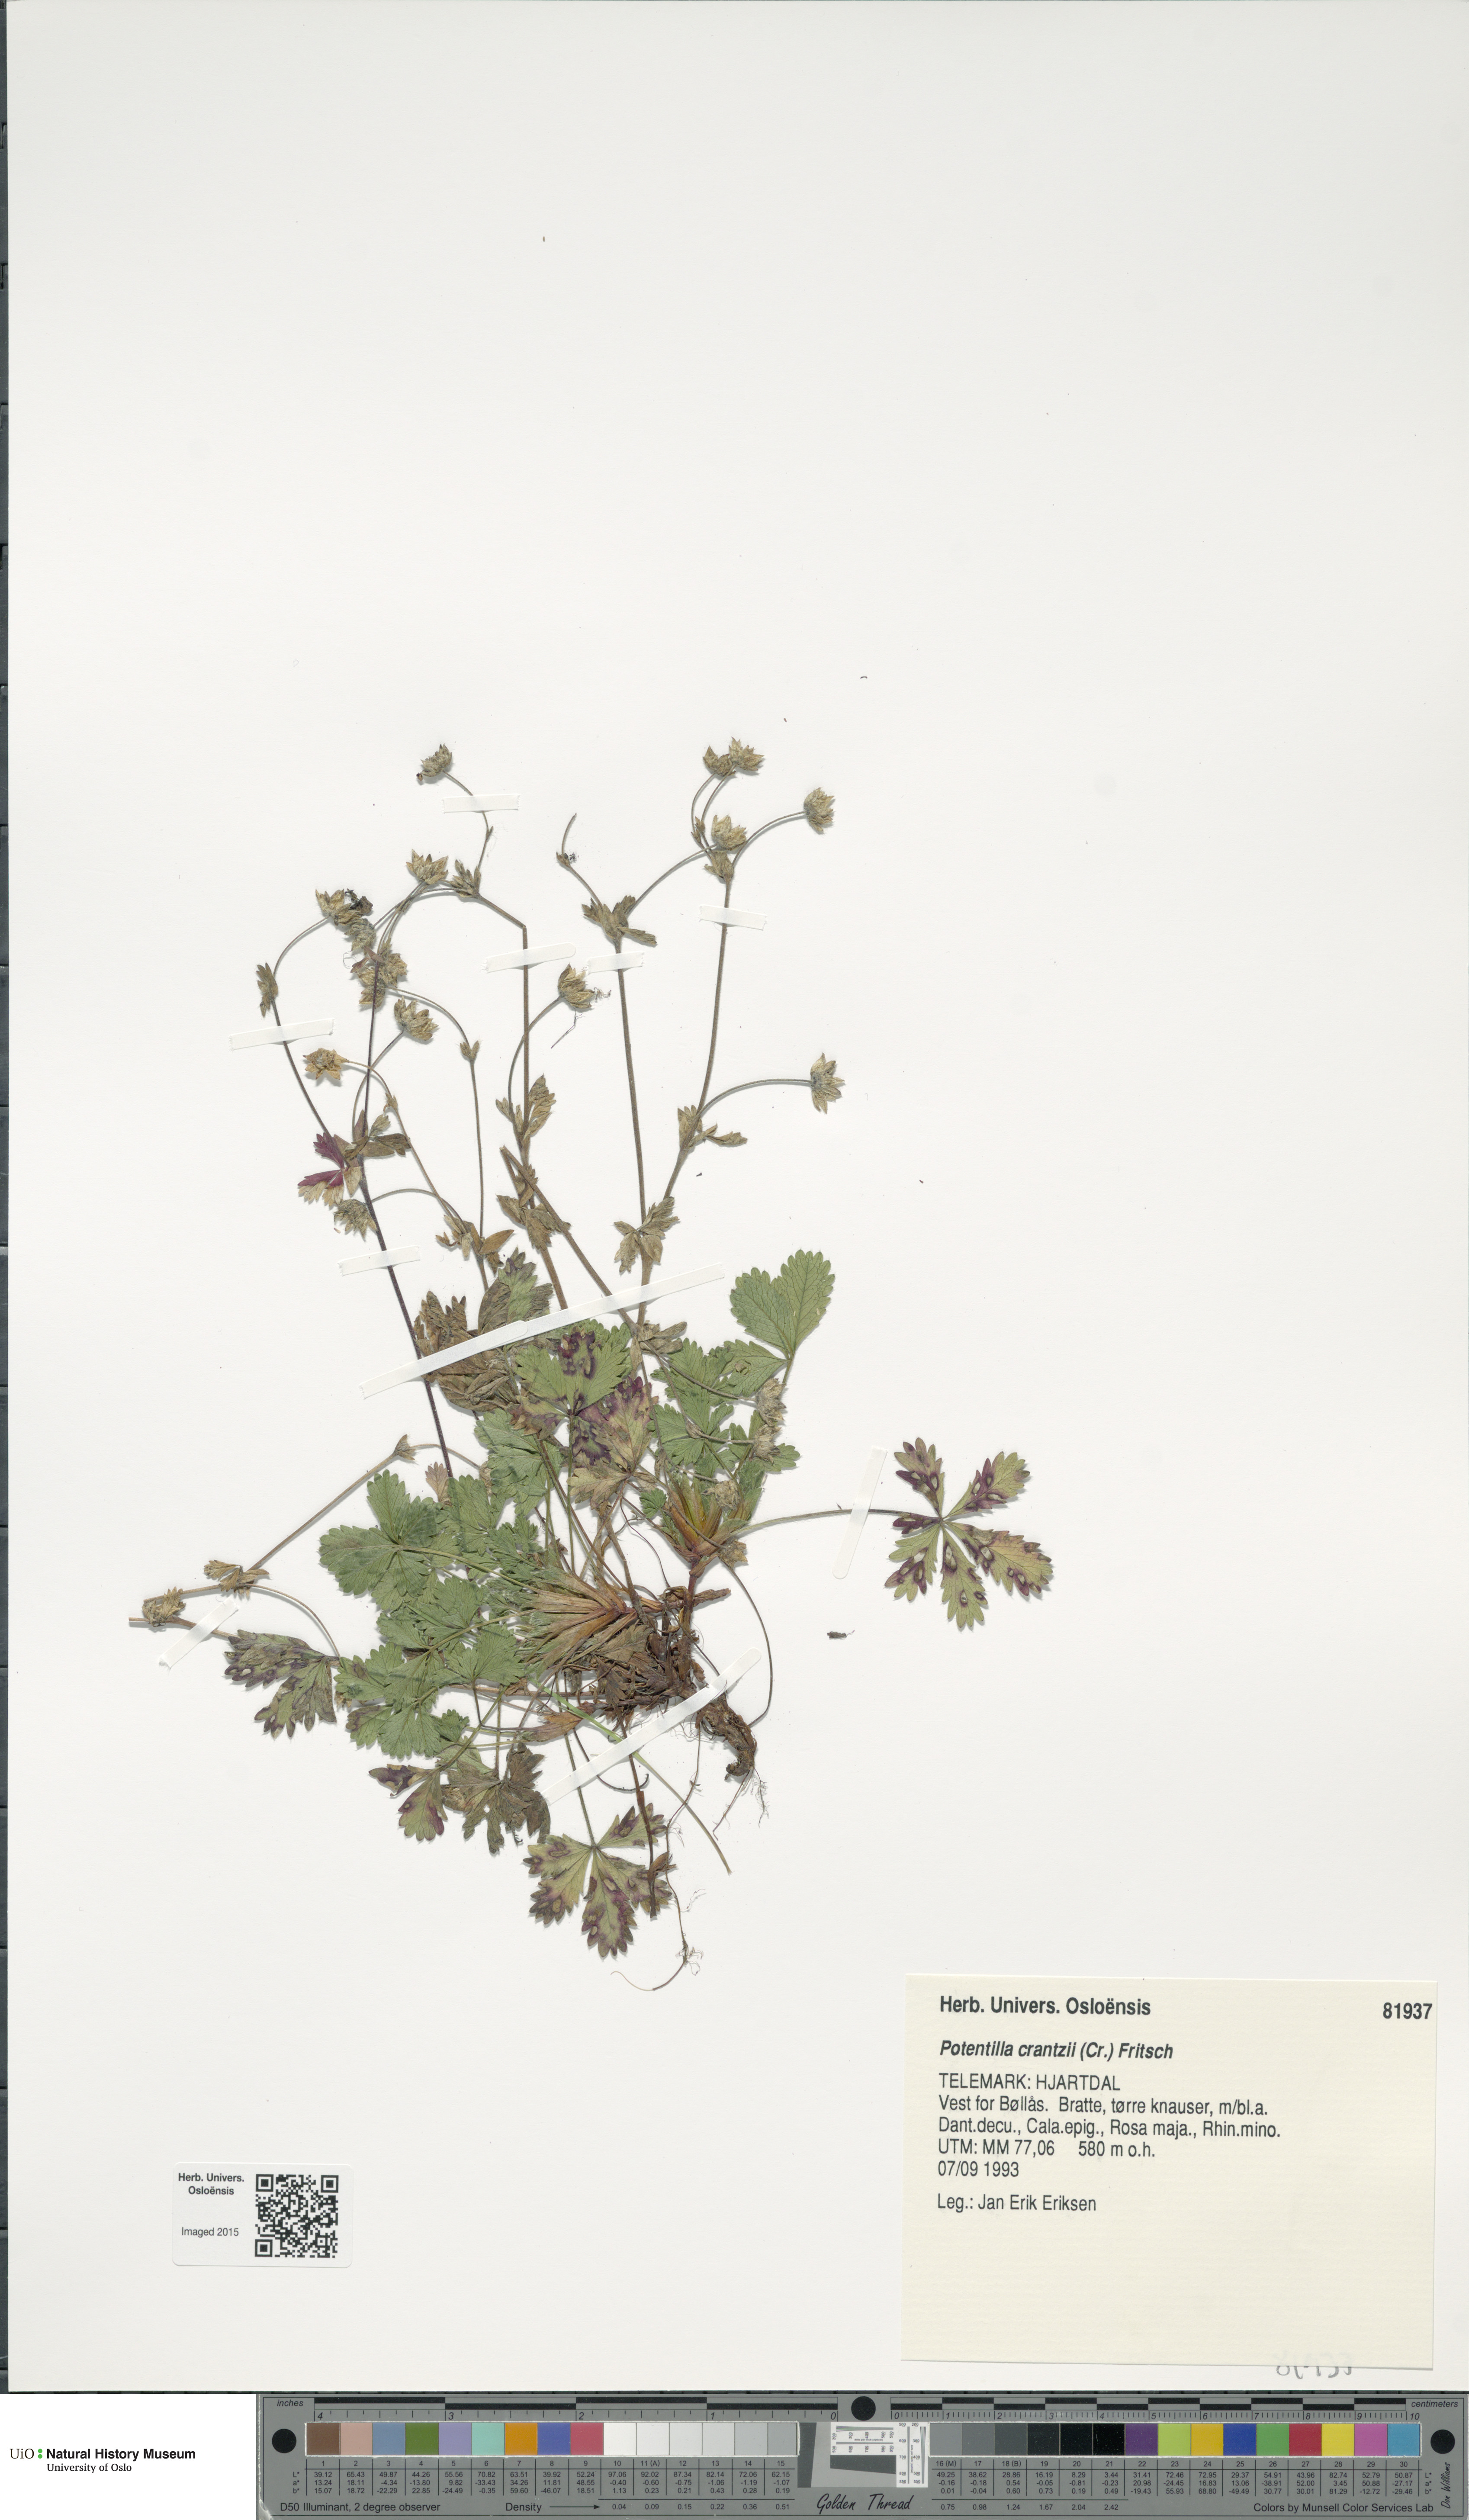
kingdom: Plantae
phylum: Tracheophyta
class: Magnoliopsida
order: Rosales
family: Rosaceae
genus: Potentilla
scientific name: Potentilla crantzii
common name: Alpine cinquefoil
